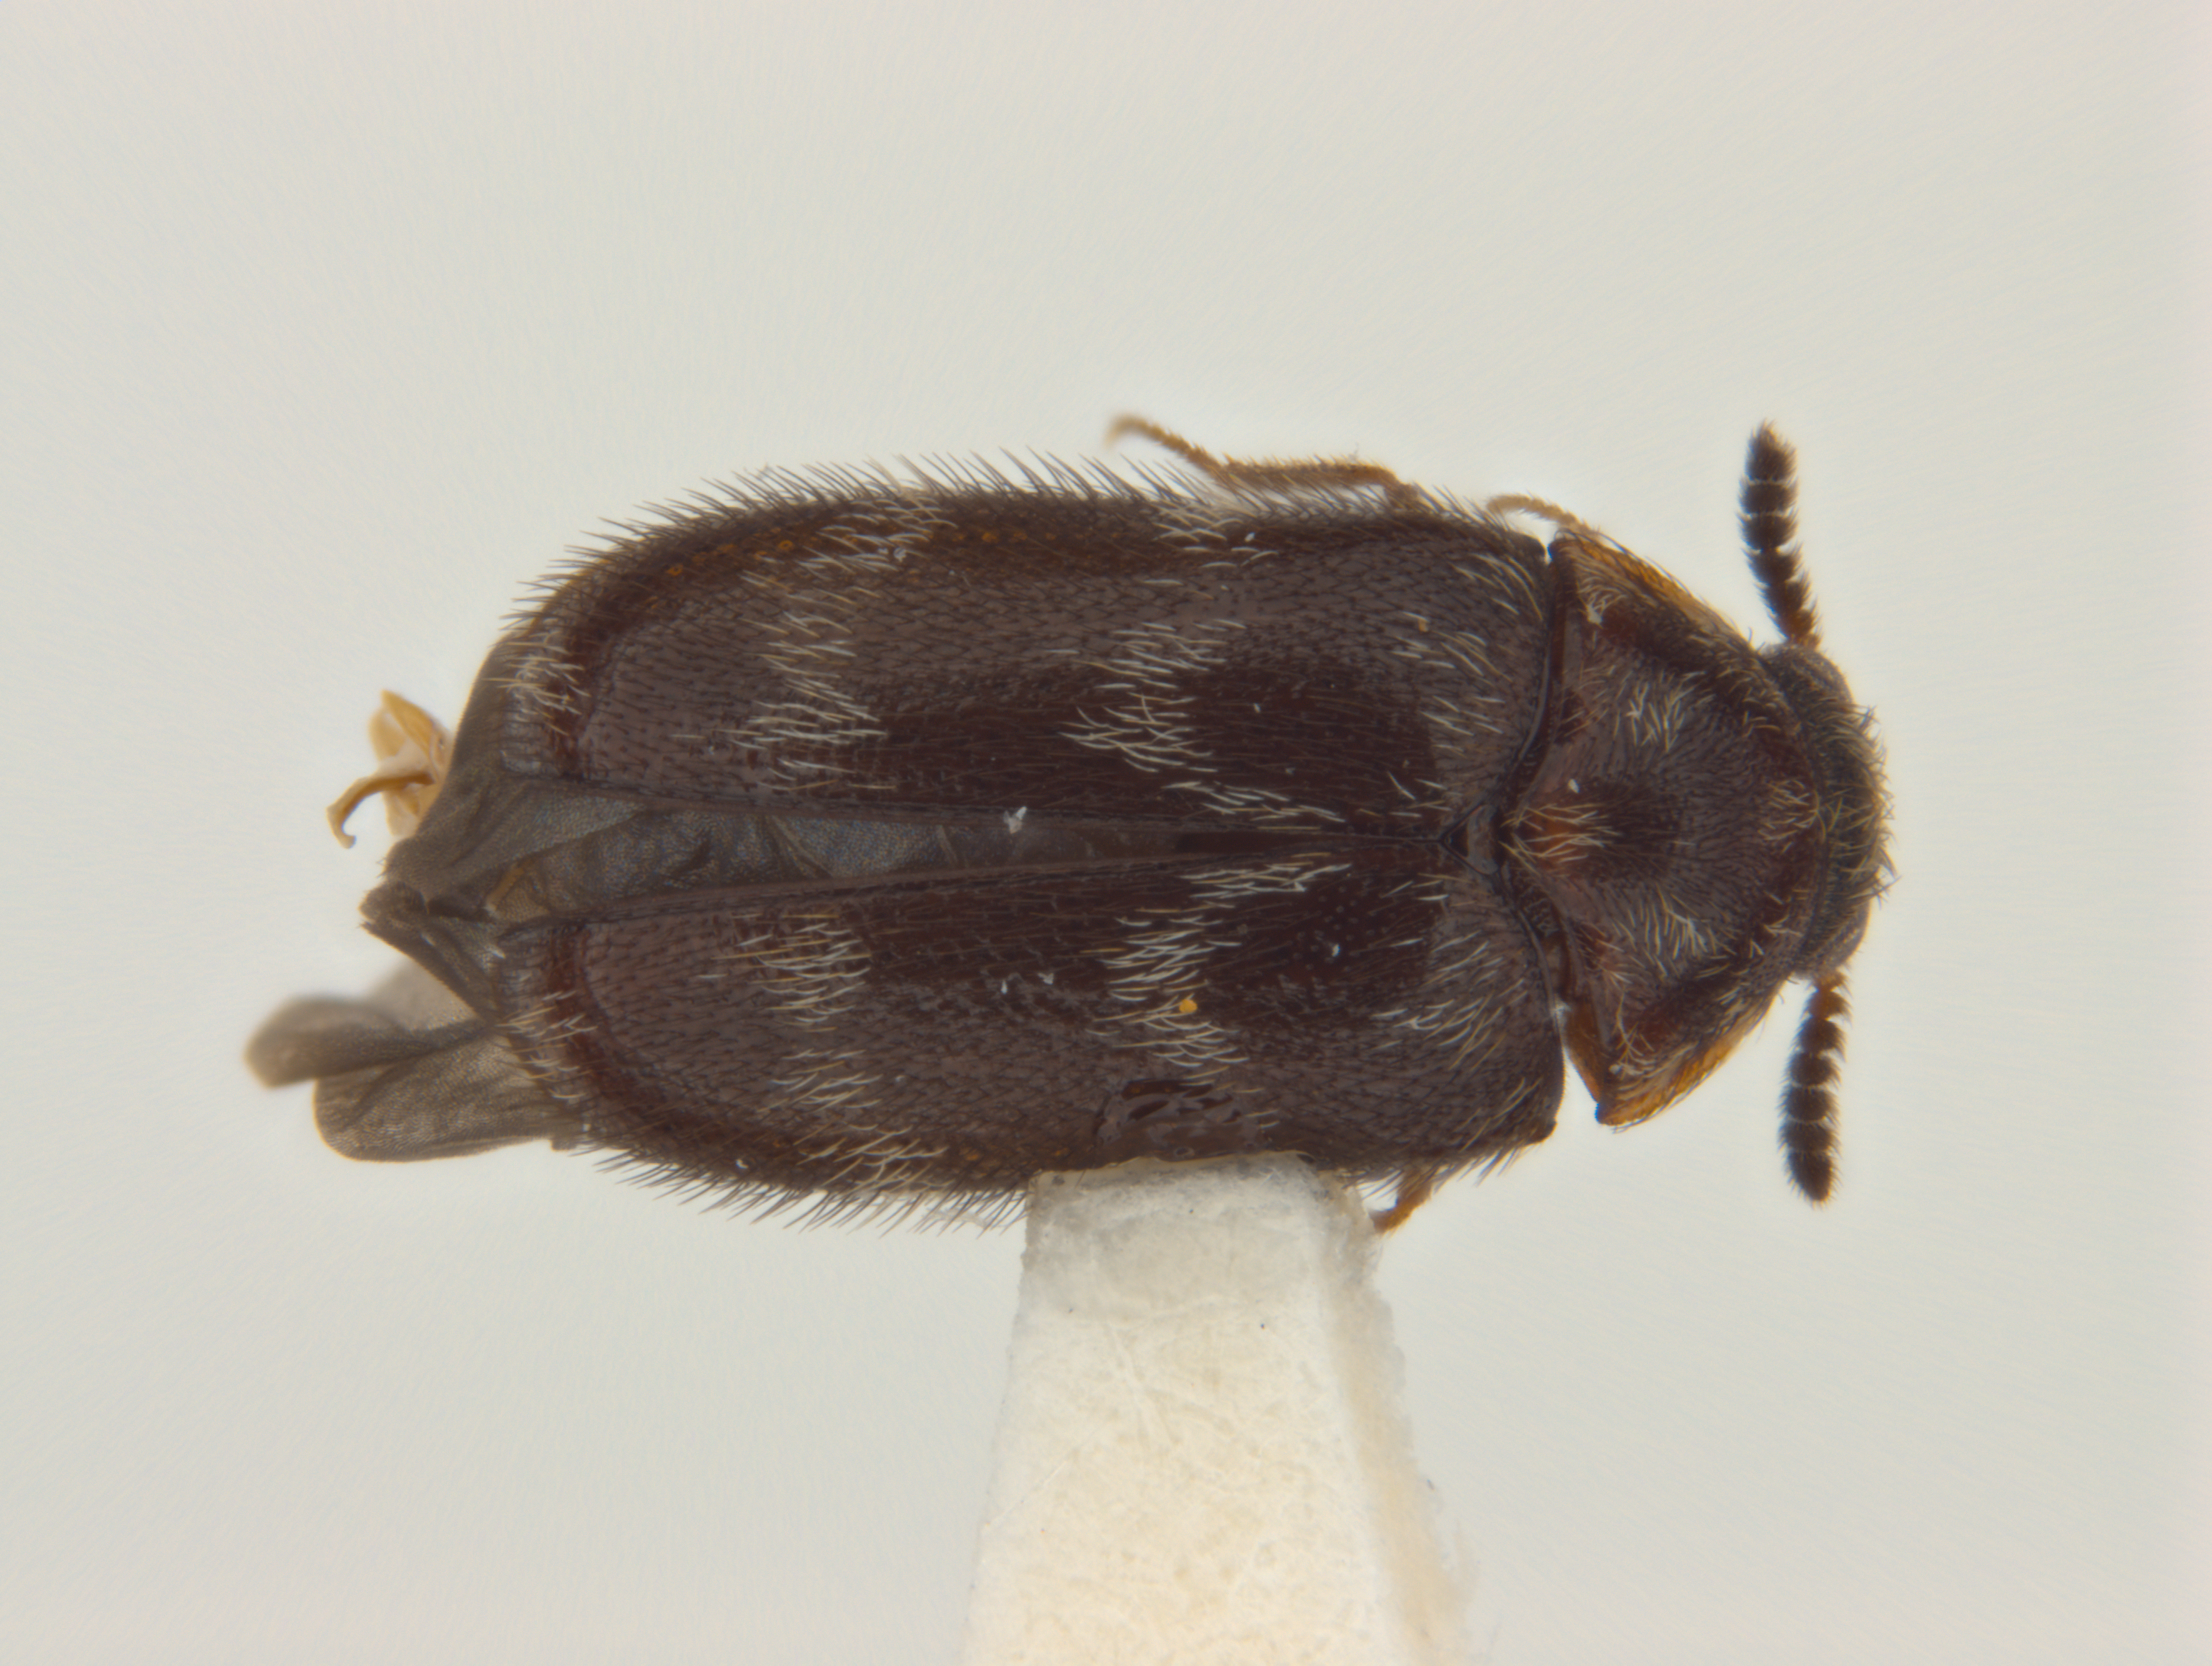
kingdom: Animalia
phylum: Arthropoda
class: Insecta
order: Coleoptera
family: Dermestidae
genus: Trogoderma
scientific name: Trogoderma
